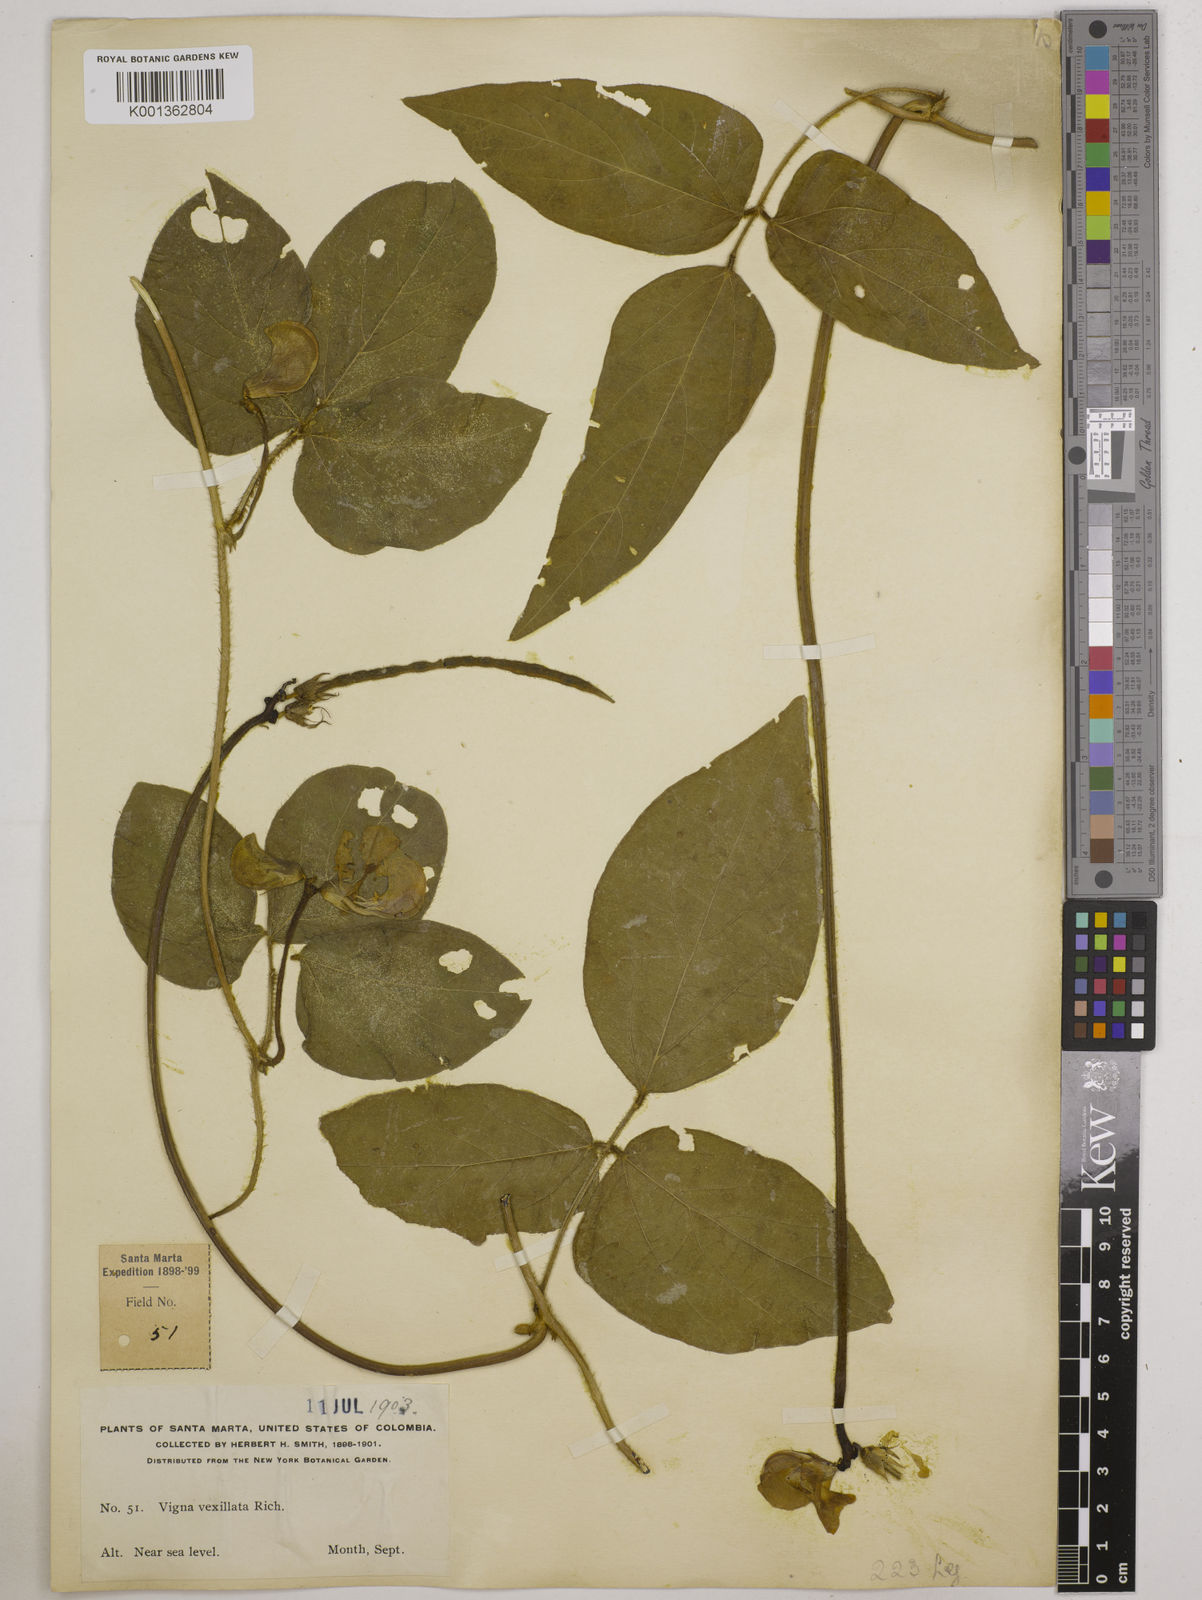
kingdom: Plantae
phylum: Tracheophyta
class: Magnoliopsida
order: Fabales
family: Fabaceae
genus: Vigna
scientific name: Vigna vexillata
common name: Zombi pea
